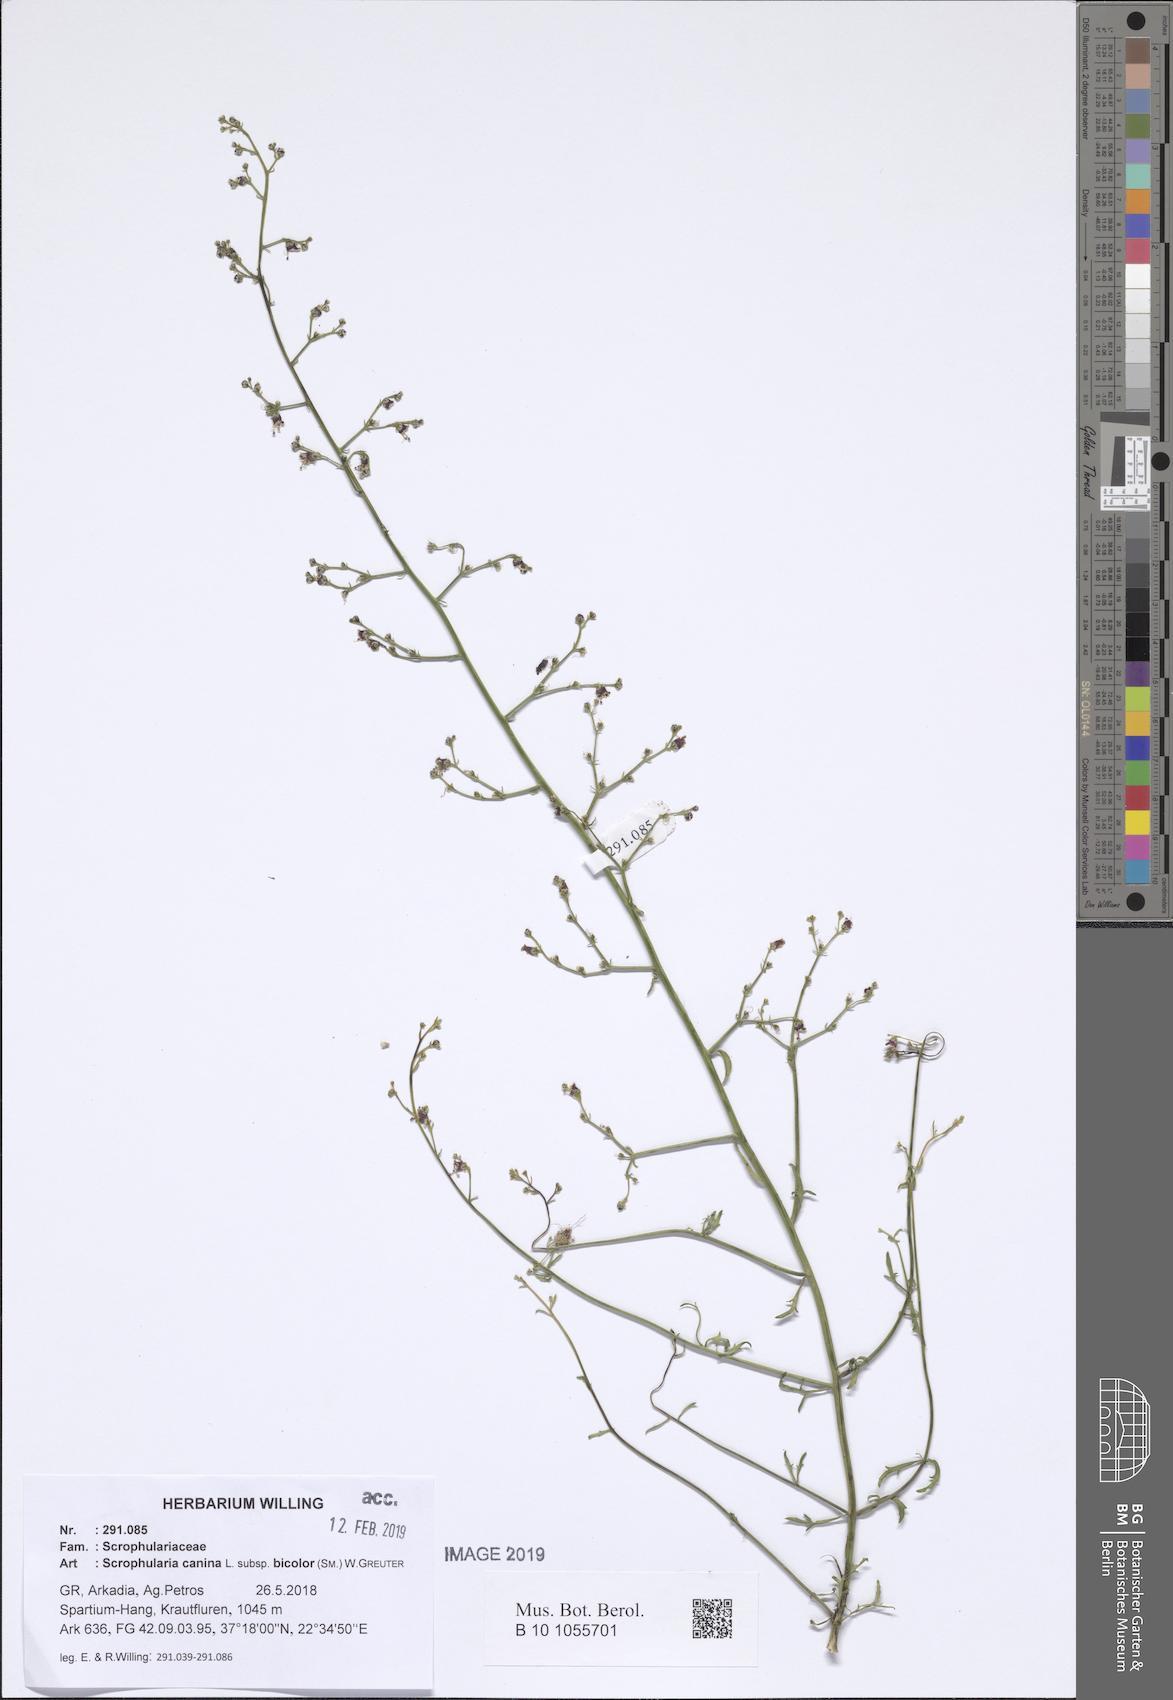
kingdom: Plantae
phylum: Tracheophyta
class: Magnoliopsida
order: Lamiales
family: Scrophulariaceae
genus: Scrophularia
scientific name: Scrophularia canina
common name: French figwort
